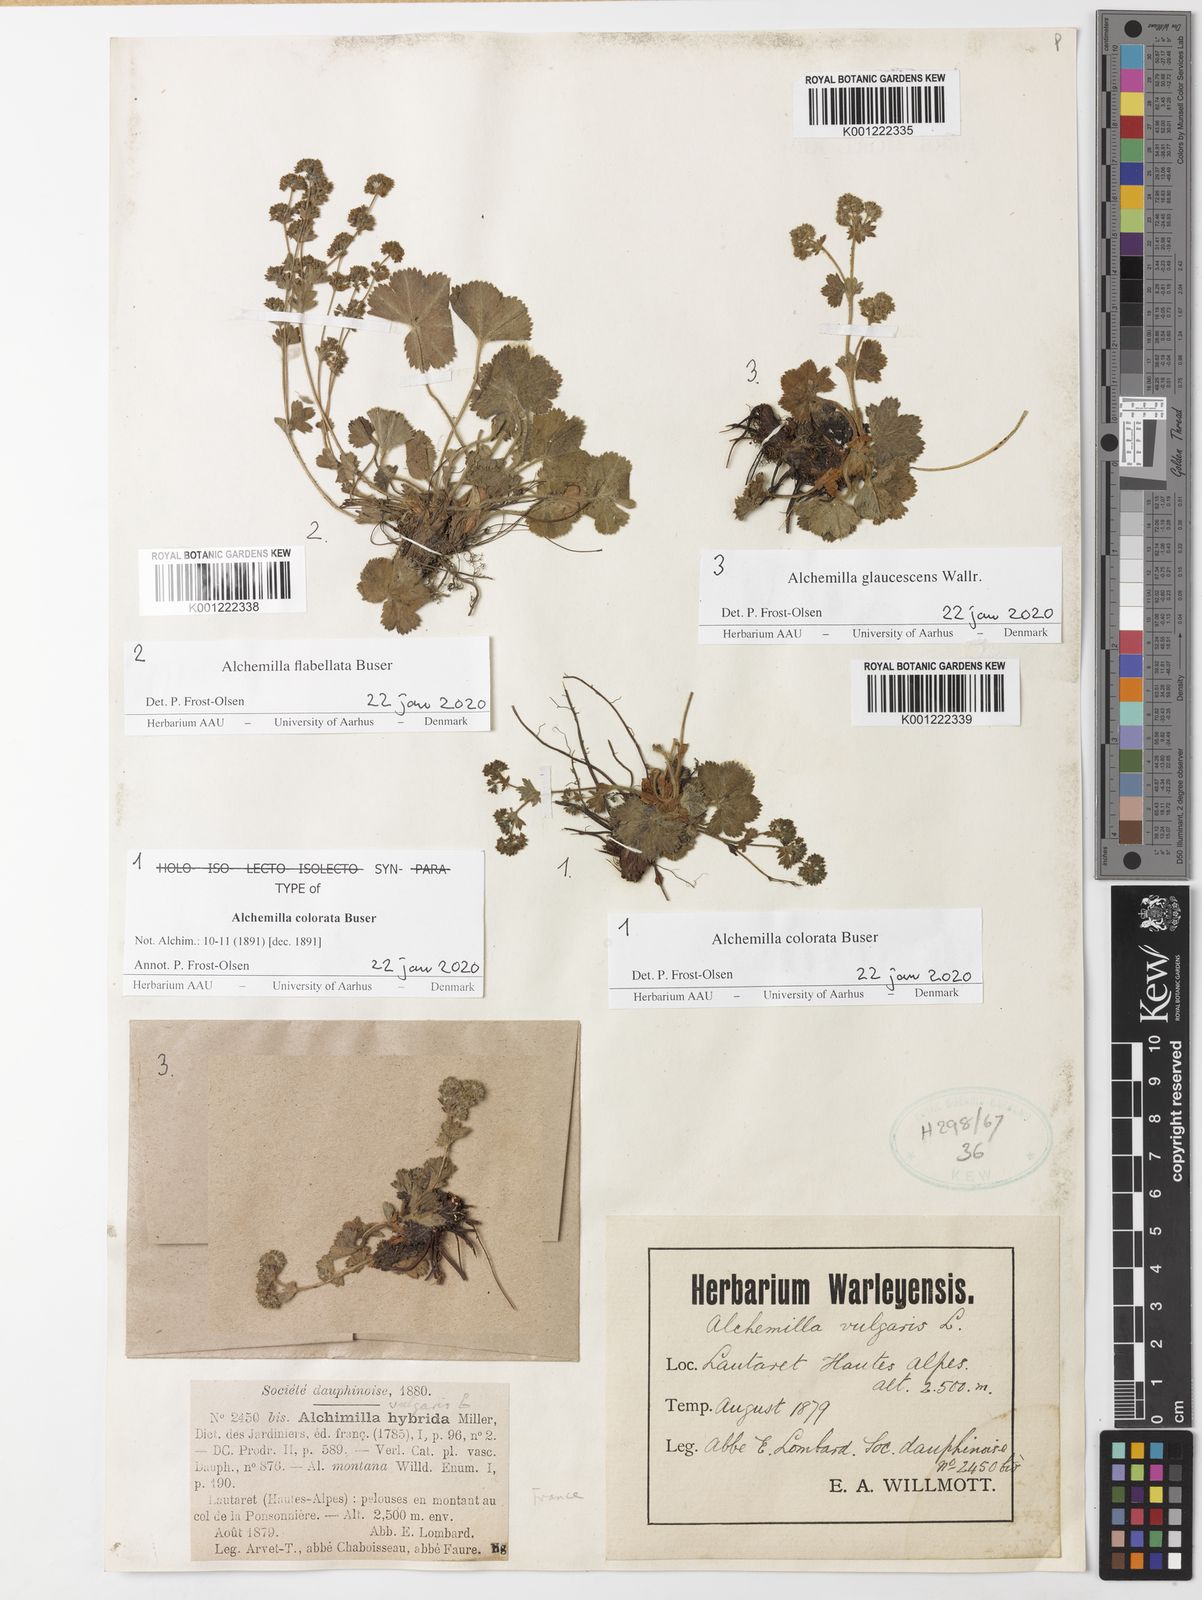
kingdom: Plantae
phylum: Tracheophyta
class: Magnoliopsida
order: Rosales
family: Rosaceae
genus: Alchemilla
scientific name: Alchemilla flabellata
